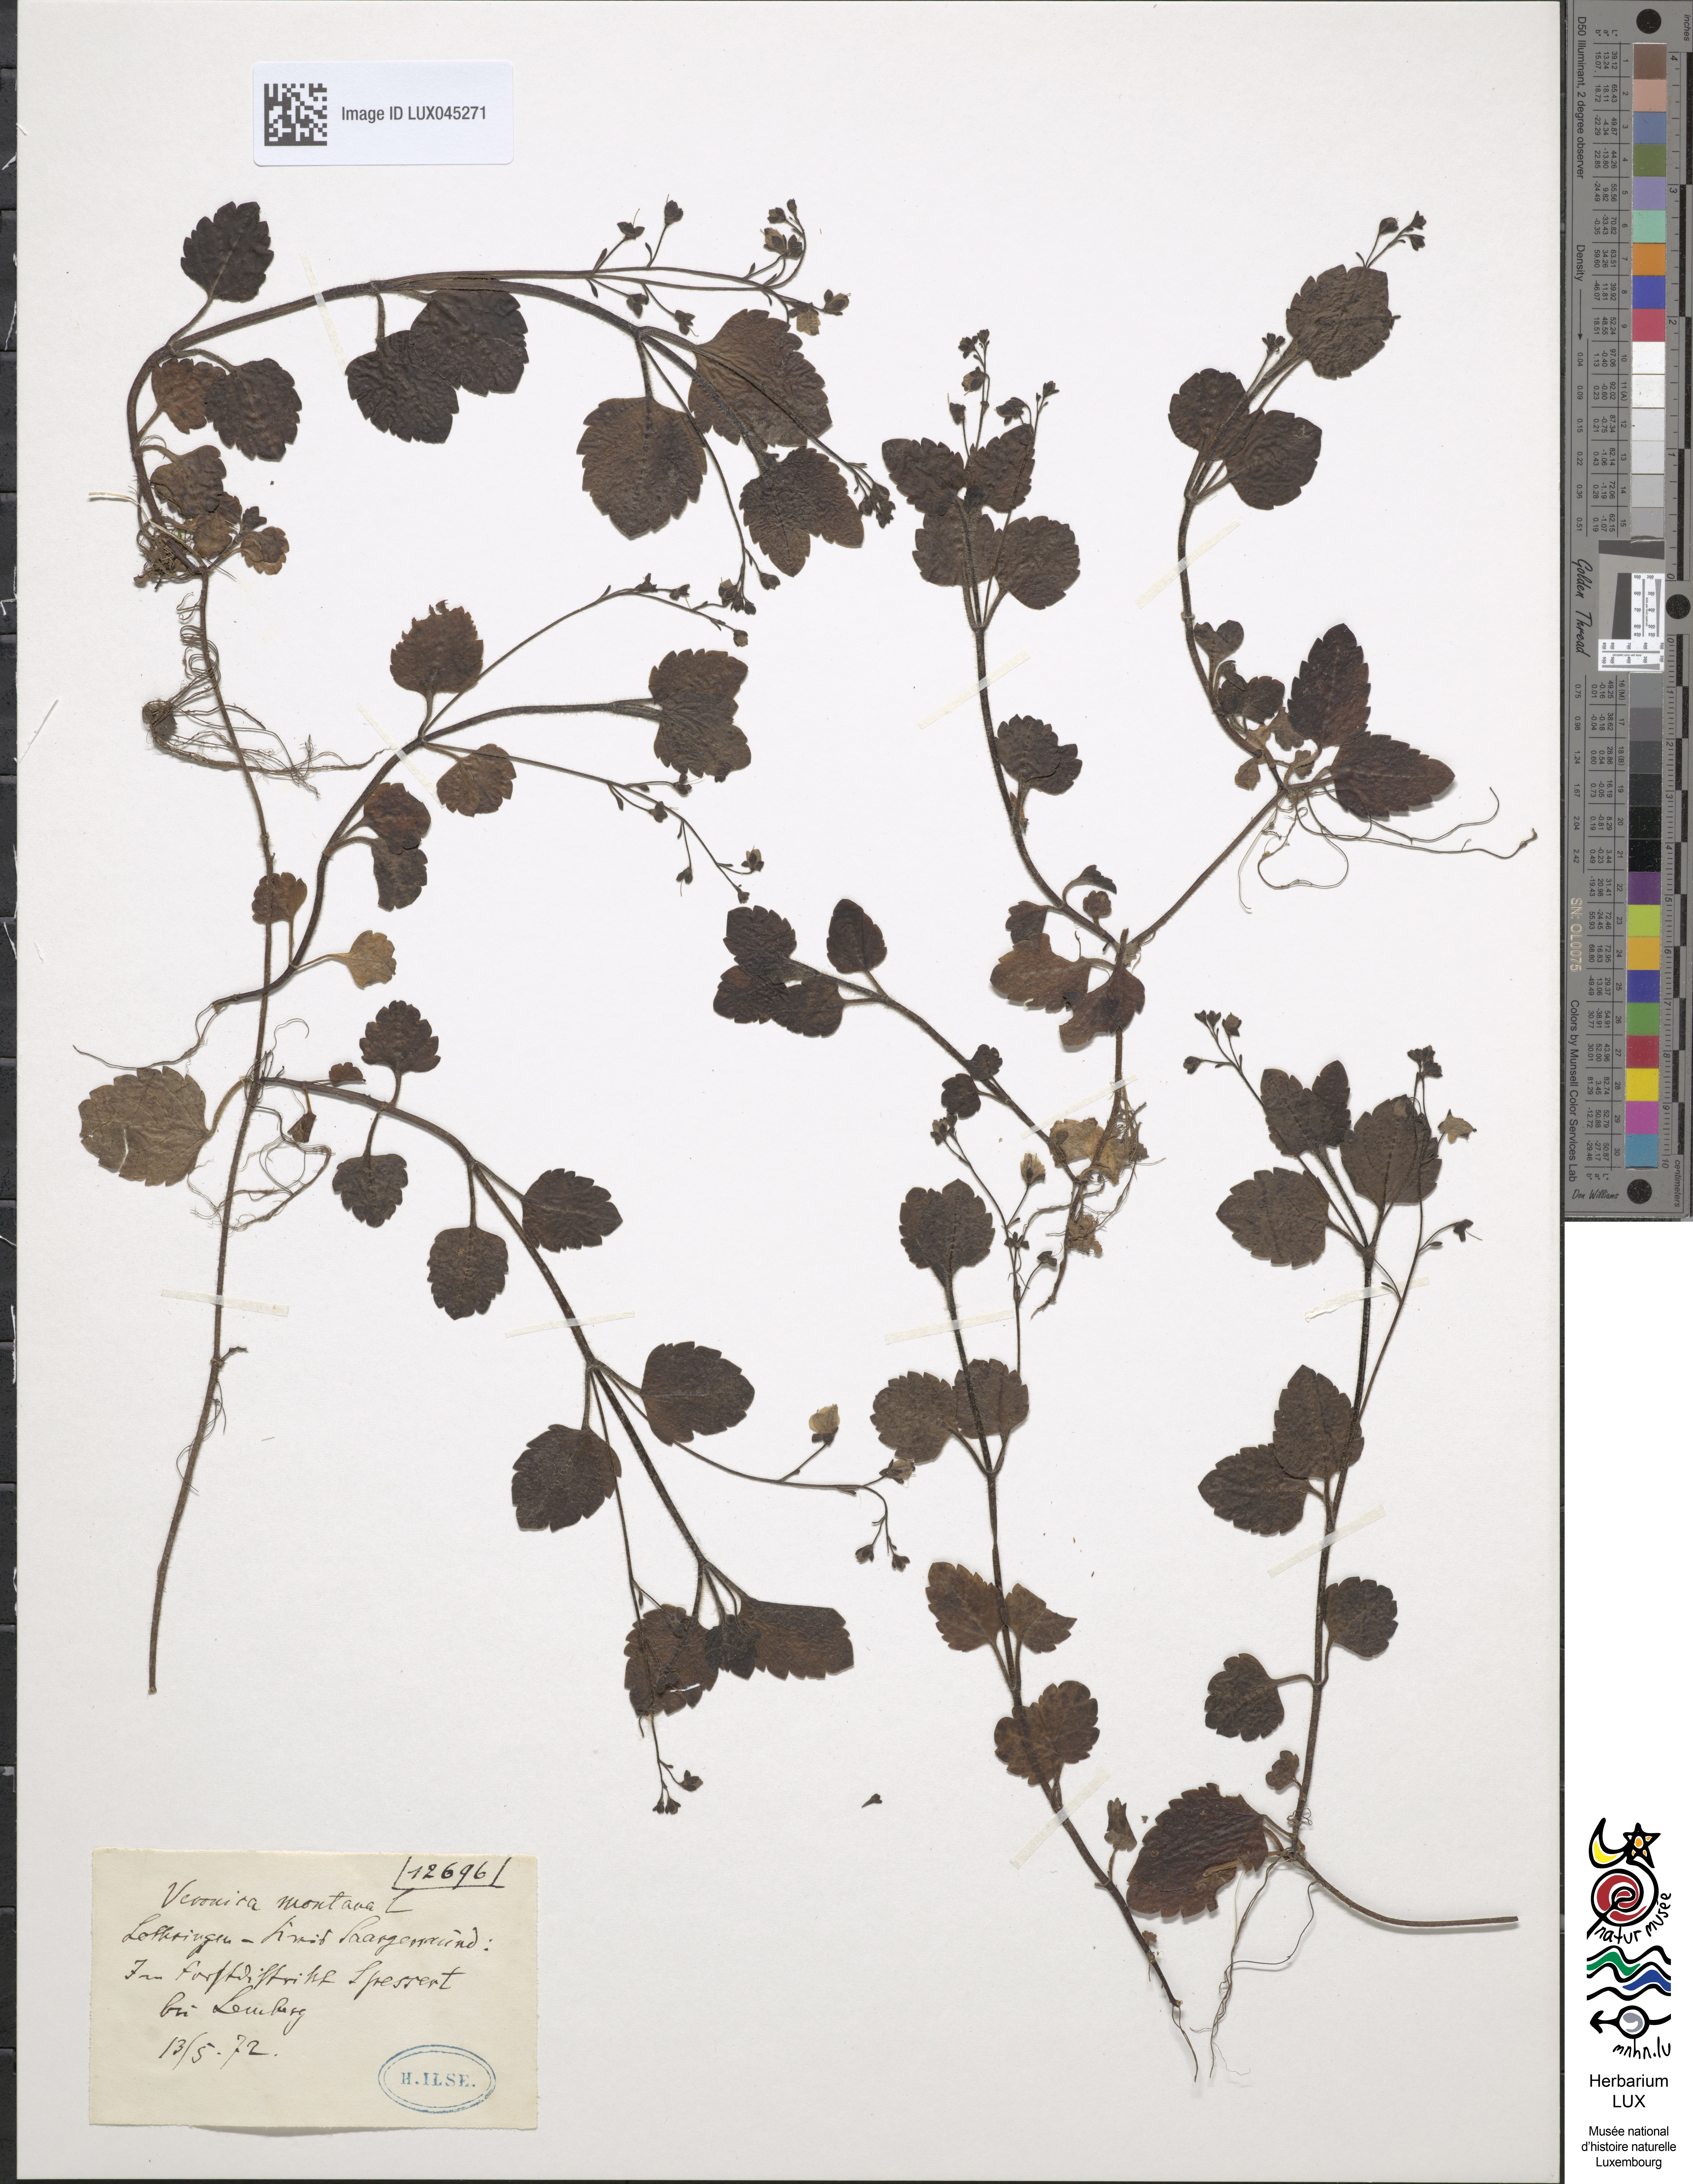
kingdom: Plantae
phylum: Tracheophyta
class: Magnoliopsida
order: Lamiales
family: Plantaginaceae
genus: Veronica
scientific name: Veronica montana
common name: Wood speedwell
